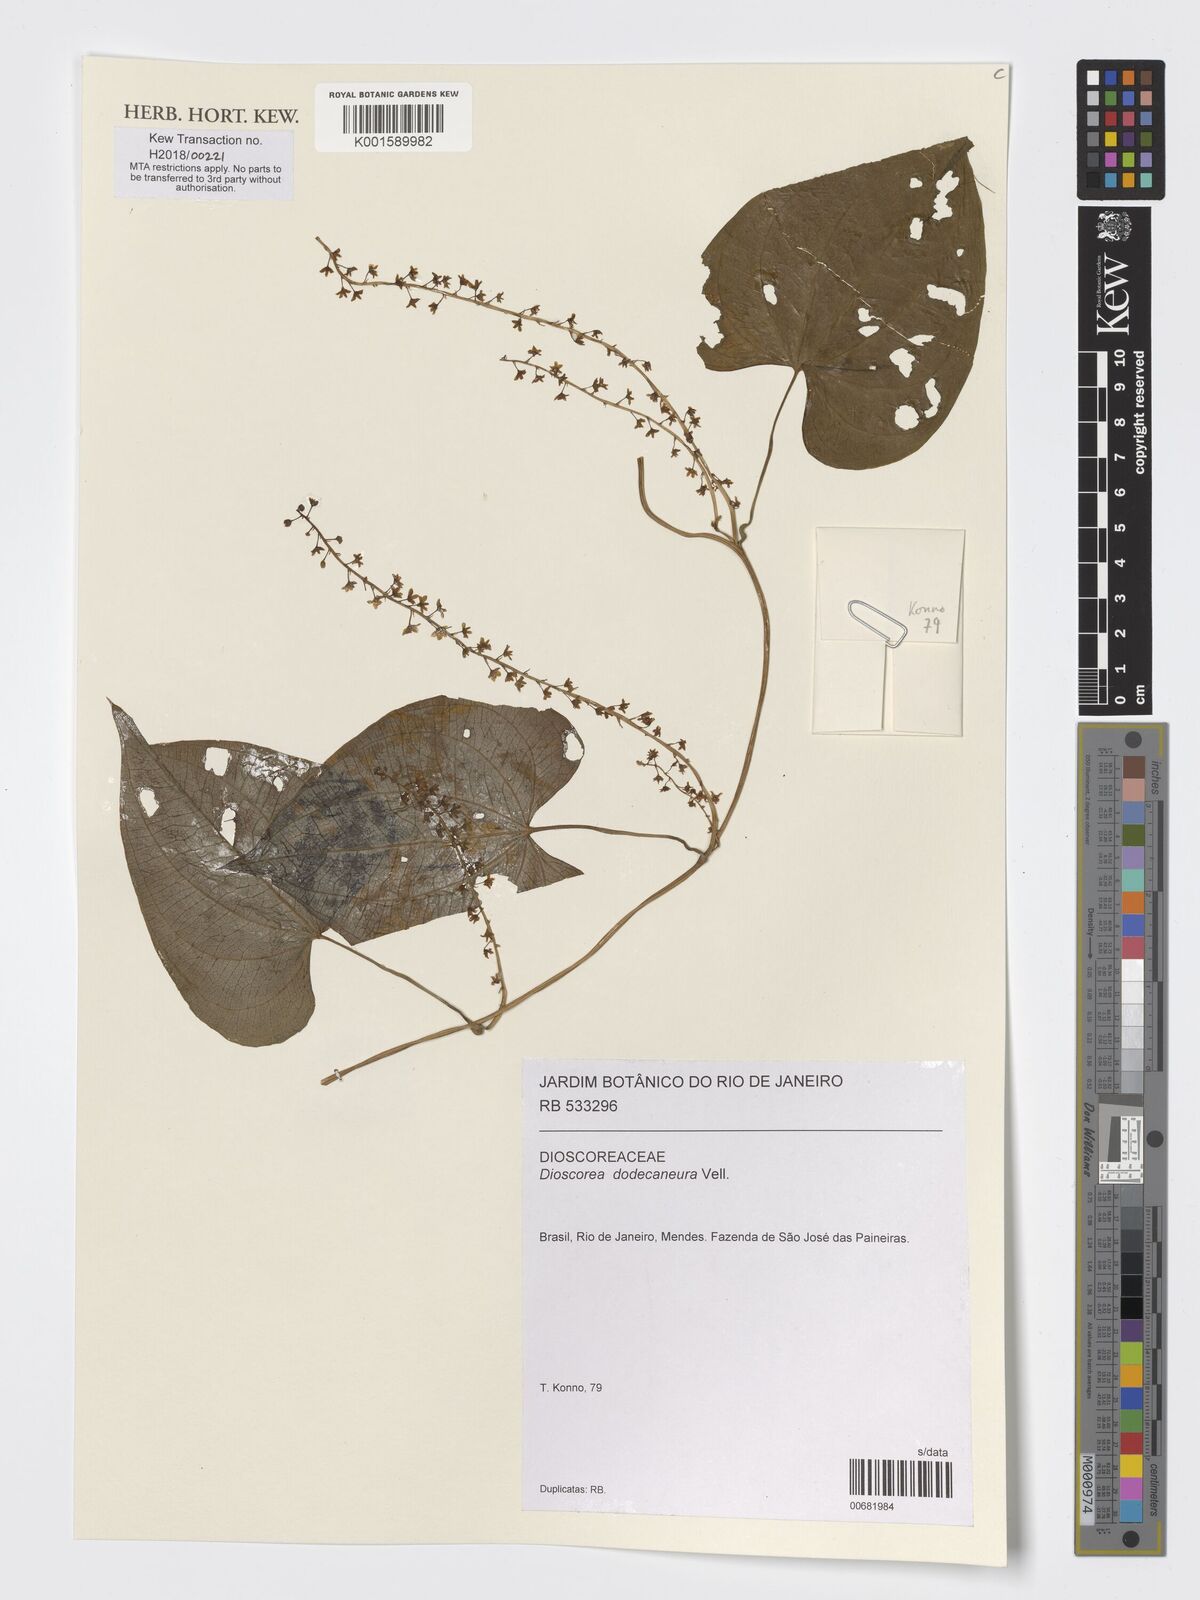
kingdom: Plantae
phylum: Tracheophyta
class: Liliopsida
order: Dioscoreales
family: Dioscoreaceae
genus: Dioscorea
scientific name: Dioscorea dodecaneura
